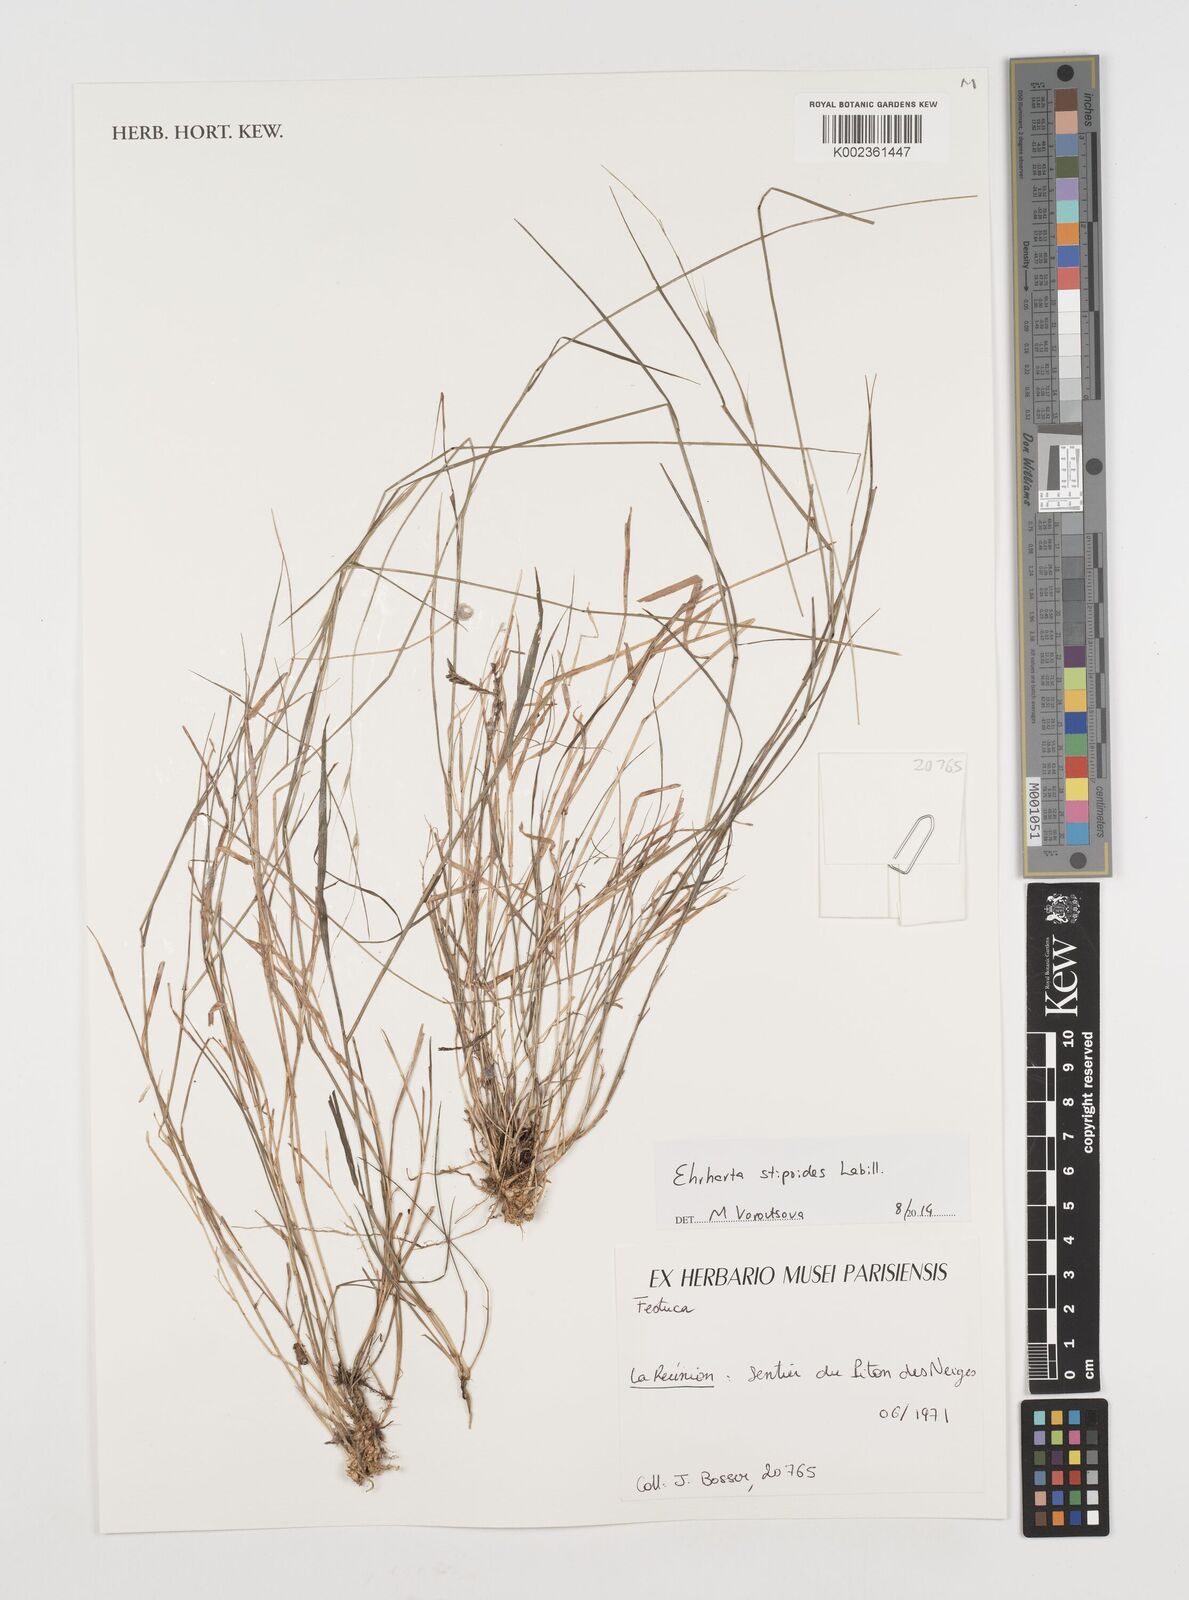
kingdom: Plantae
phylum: Tracheophyta
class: Liliopsida
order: Poales
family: Poaceae
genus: Microlaena
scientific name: Microlaena stipoides
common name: Meadow ricegrass
